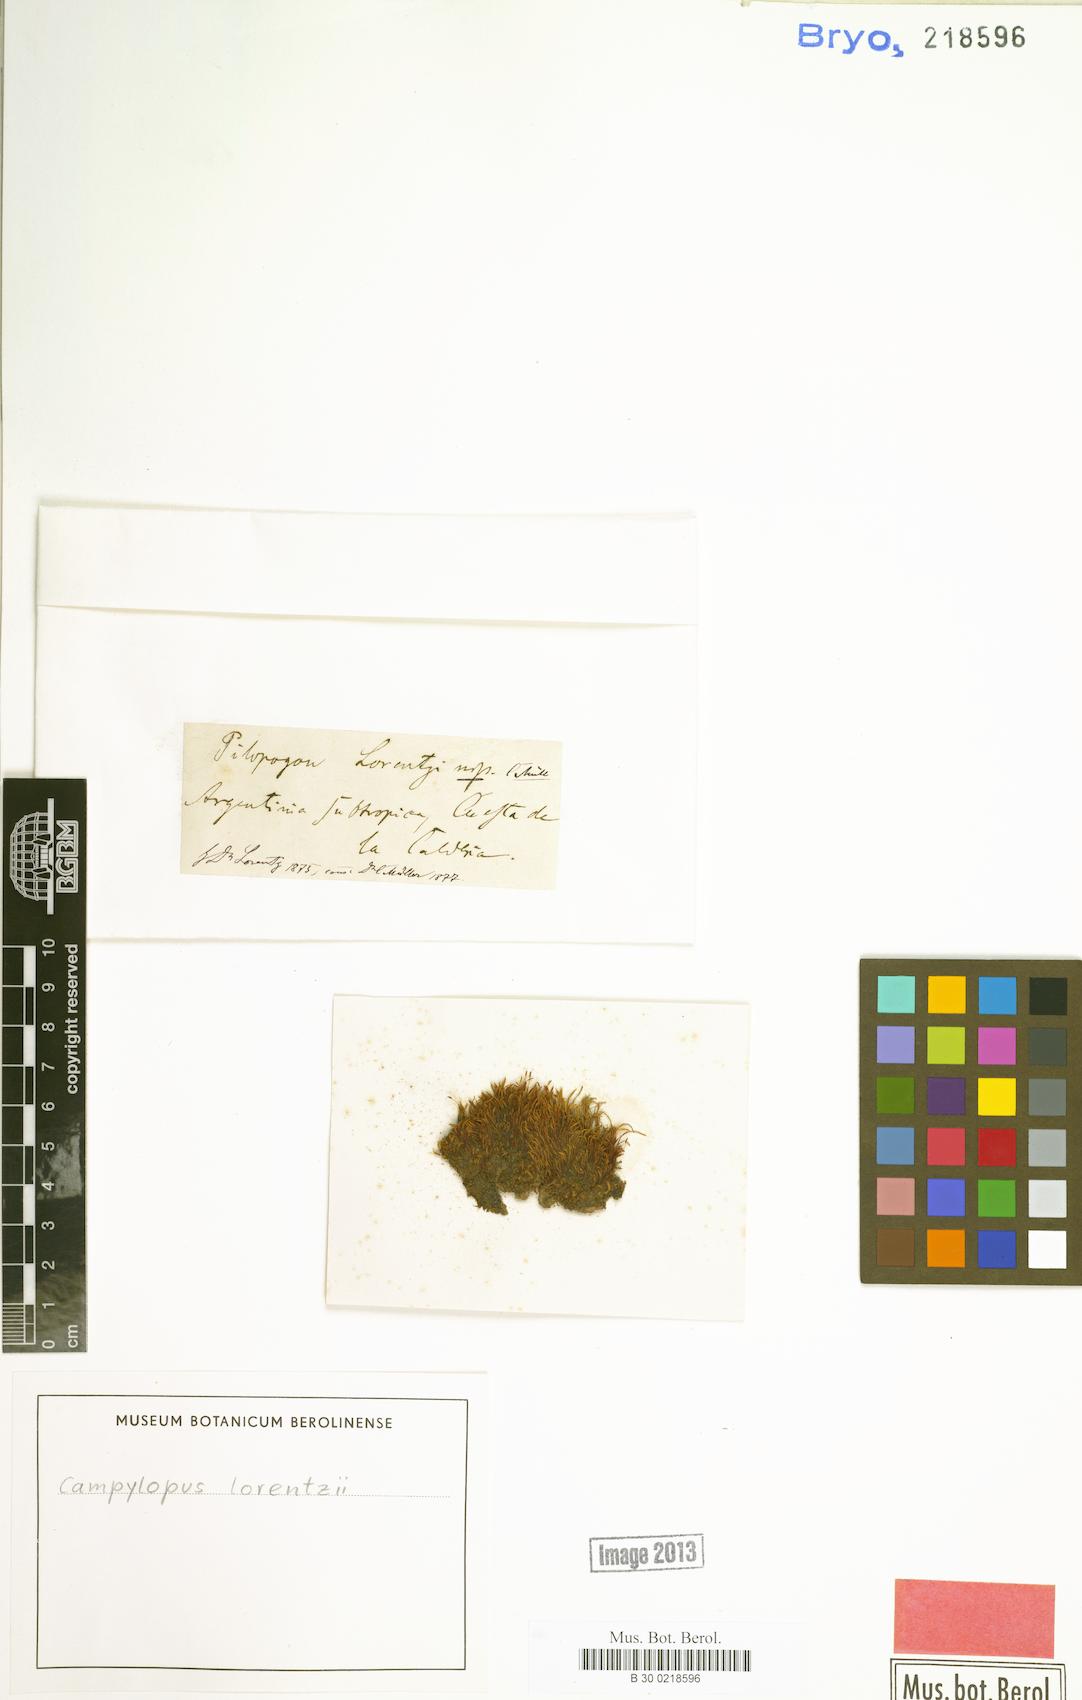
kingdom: Plantae
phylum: Bryophyta
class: Bryopsida
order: Dicranales
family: Leucobryaceae
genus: Campylopus
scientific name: Campylopus exasperatus
